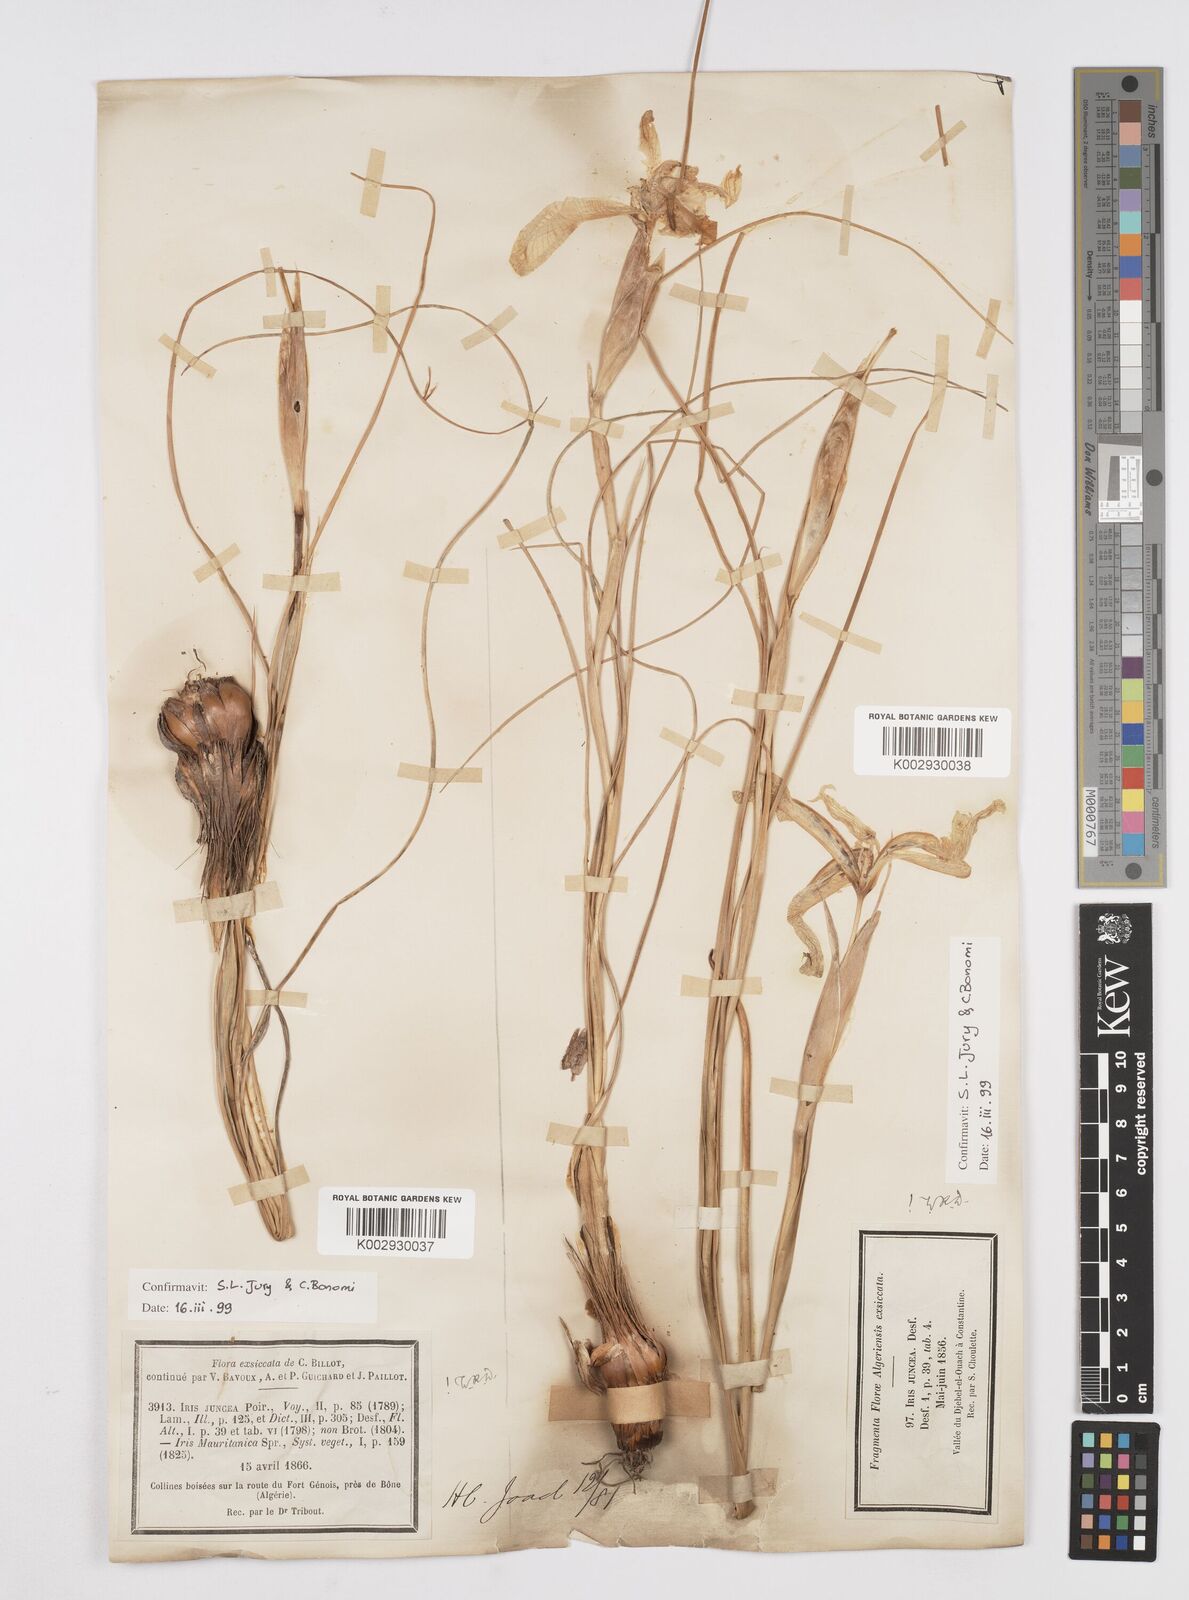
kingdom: Plantae
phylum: Tracheophyta
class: Liliopsida
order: Asparagales
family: Iridaceae
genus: Iris
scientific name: Iris juncea
